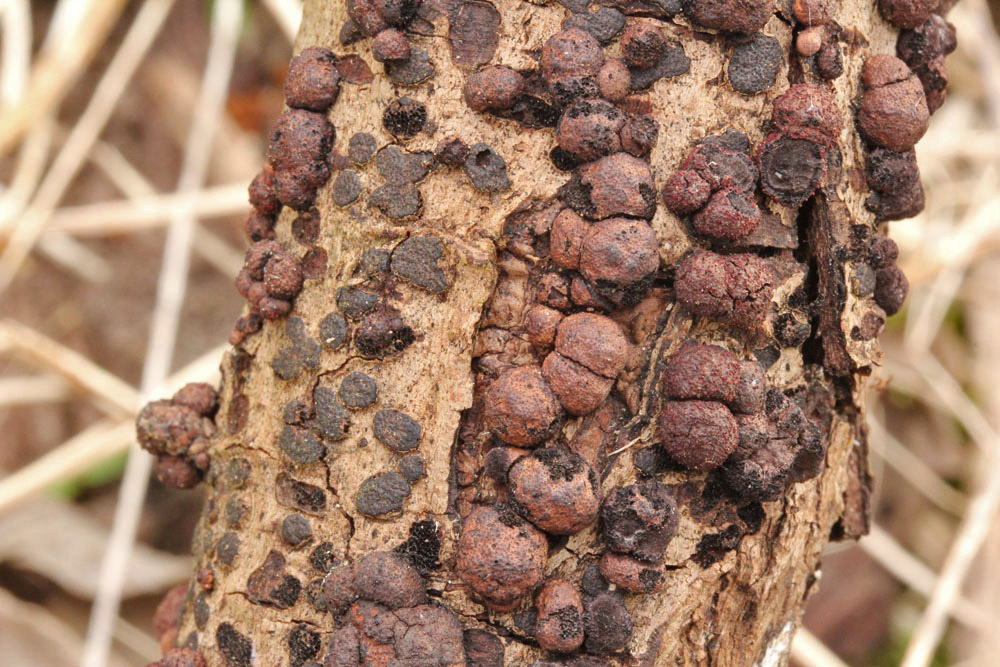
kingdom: Fungi
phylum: Ascomycota
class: Sordariomycetes
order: Xylariales
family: Hypoxylaceae
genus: Hypoxylon
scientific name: Hypoxylon howeanum
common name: halvkugleformet kulbær
